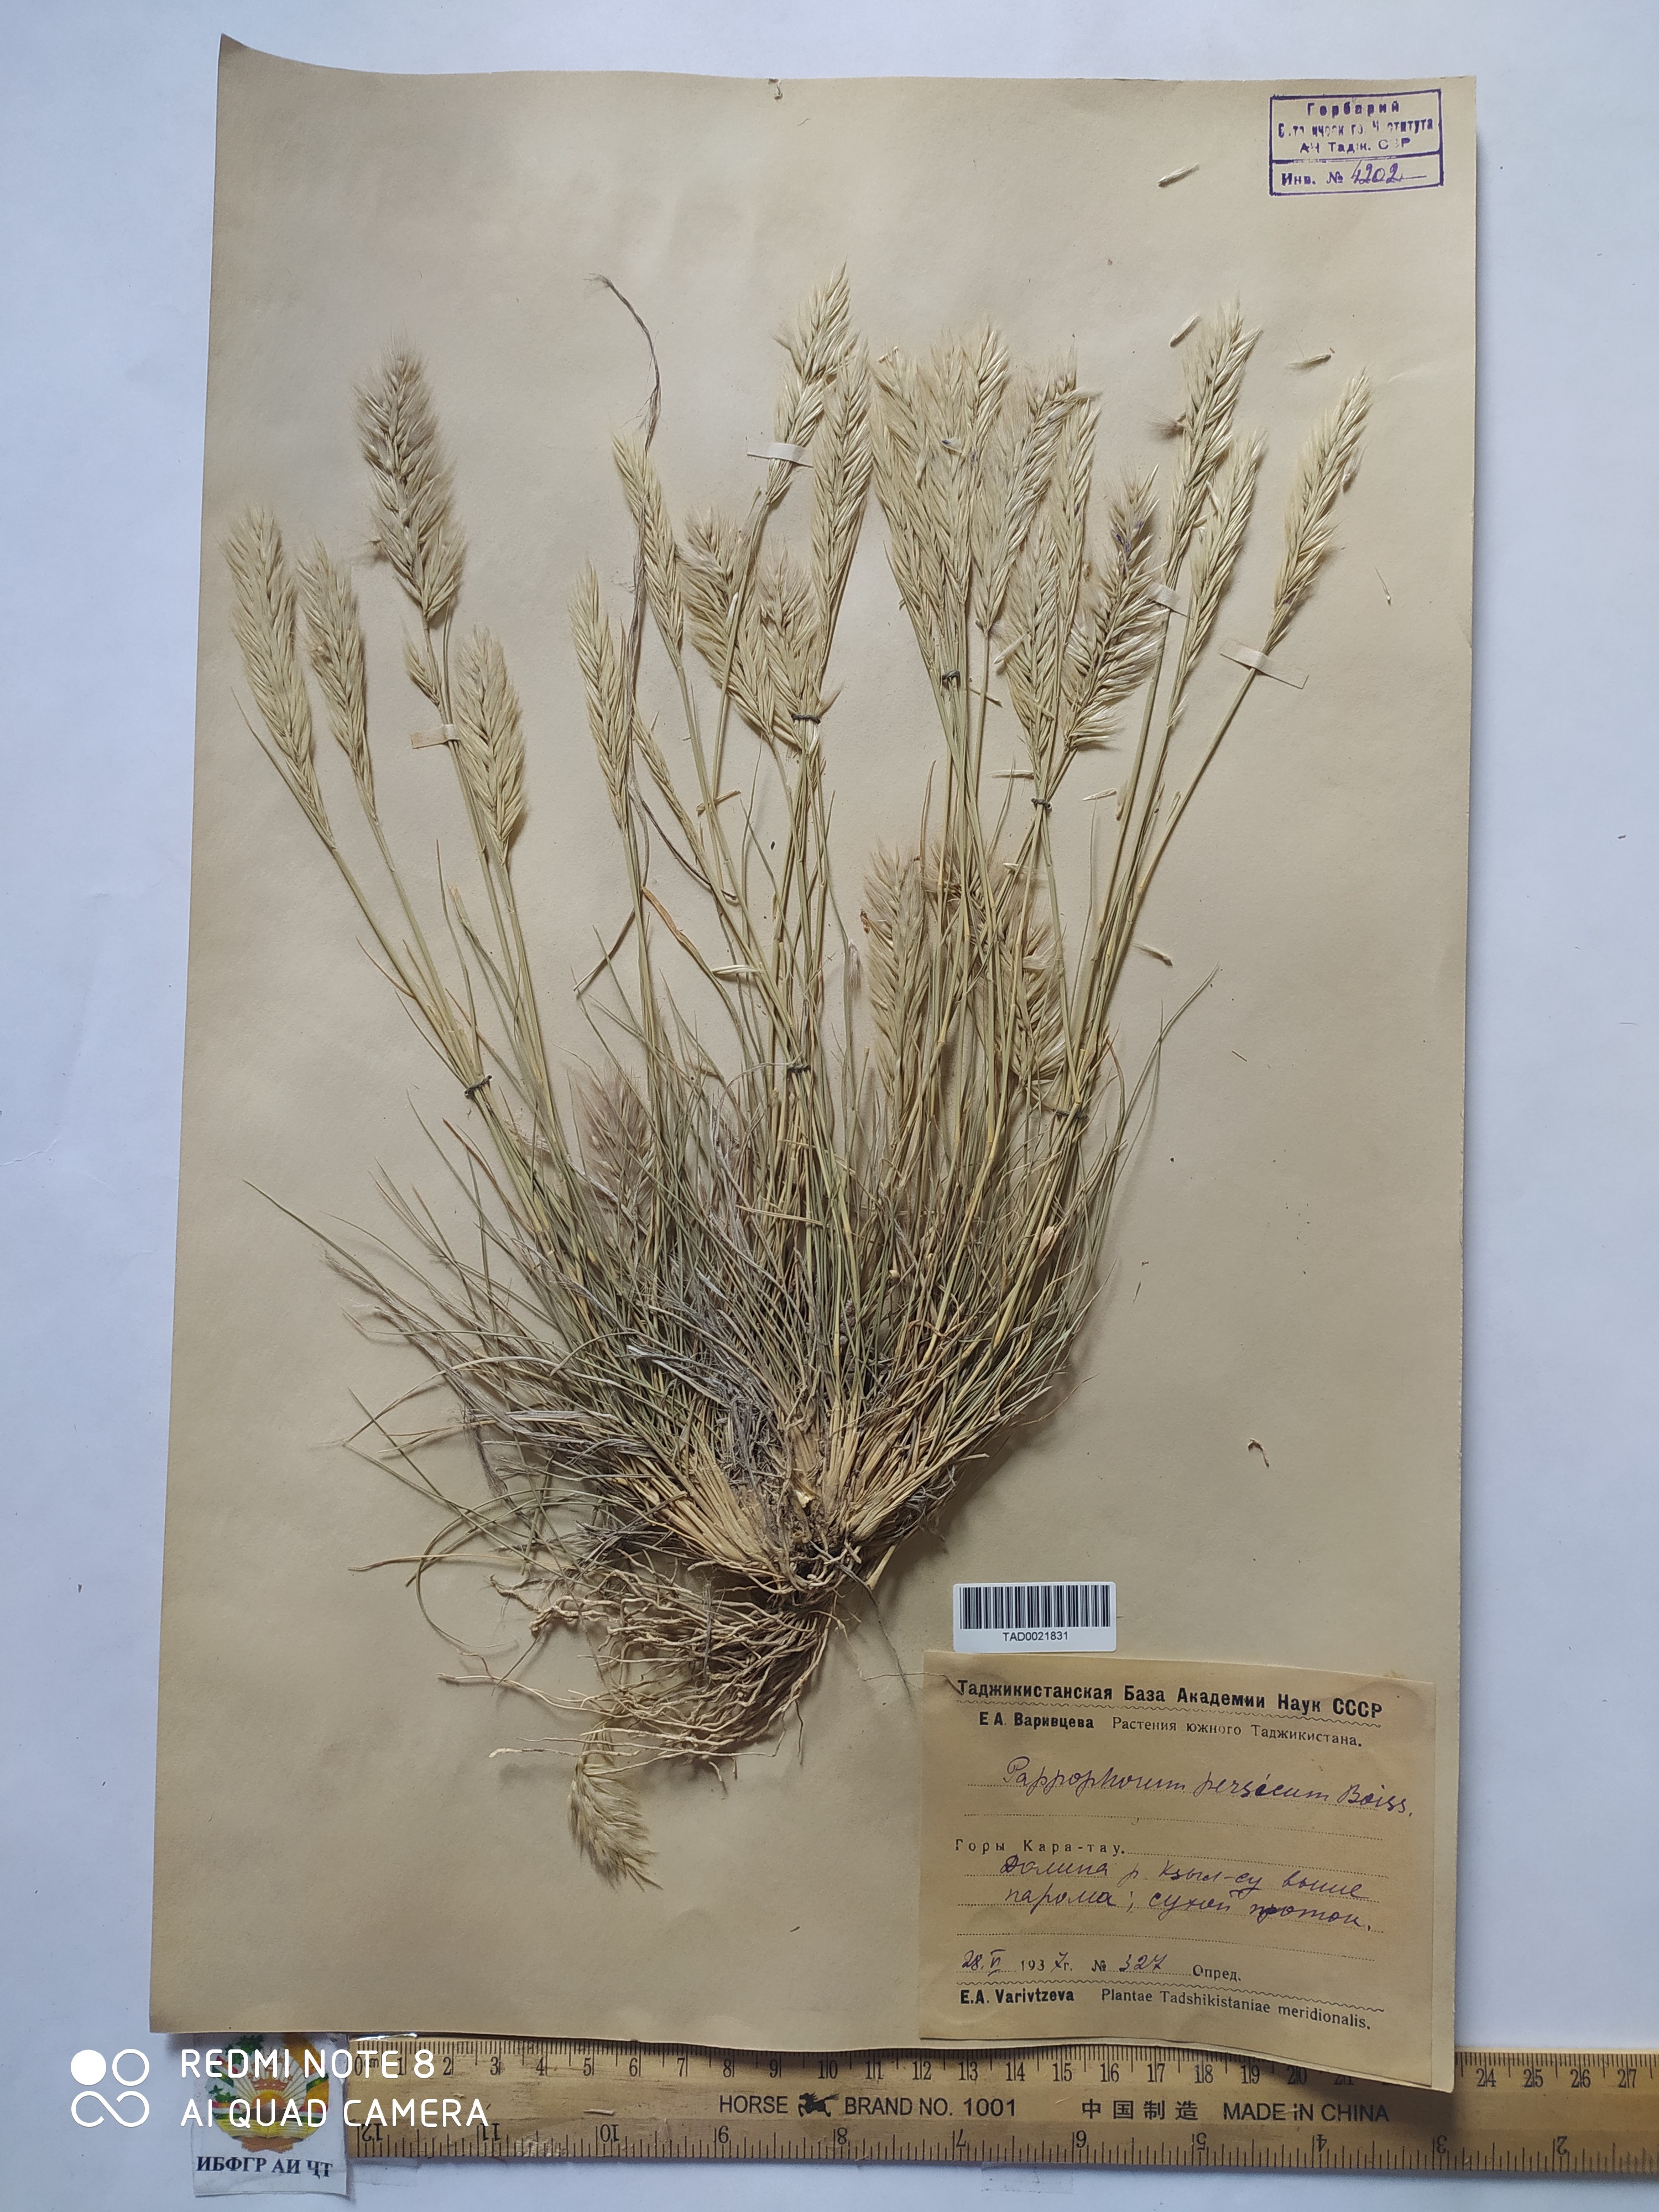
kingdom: Plantae
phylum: Tracheophyta
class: Liliopsida
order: Poales
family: Poaceae
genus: Enneapogon
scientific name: Enneapogon persicus
